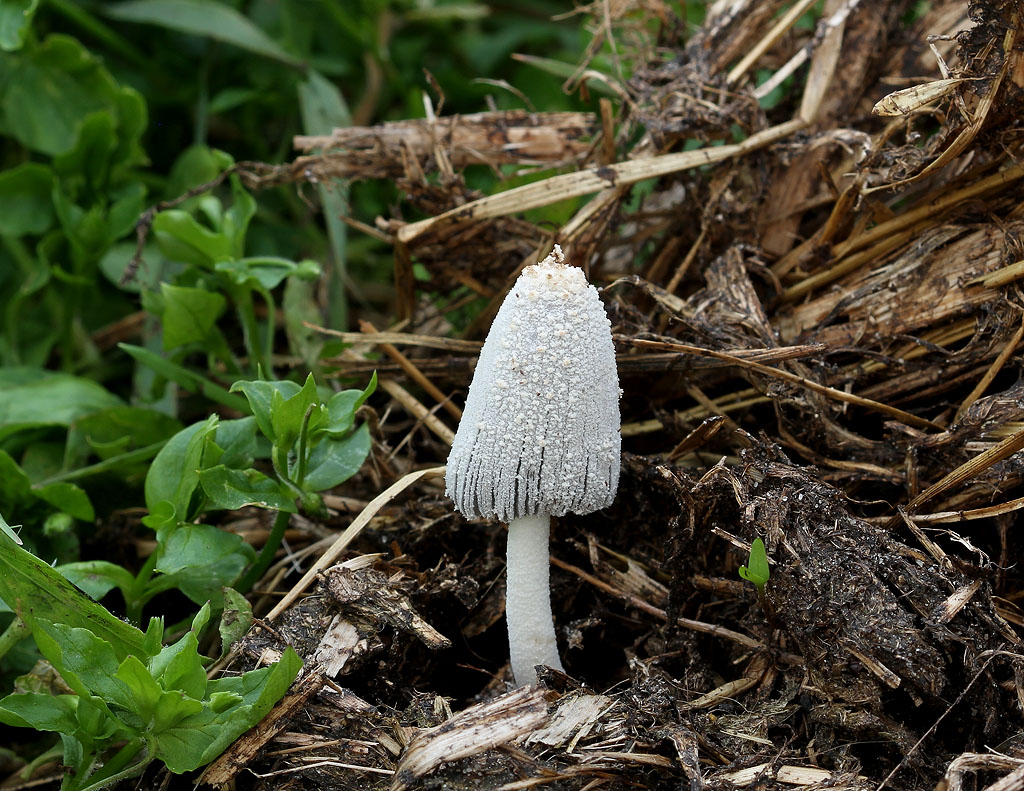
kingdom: Fungi
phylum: Basidiomycota
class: Agaricomycetes
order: Agaricales
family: Psathyrellaceae
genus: Coprinopsis
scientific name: Coprinopsis nivea
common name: snehvid blækhat
